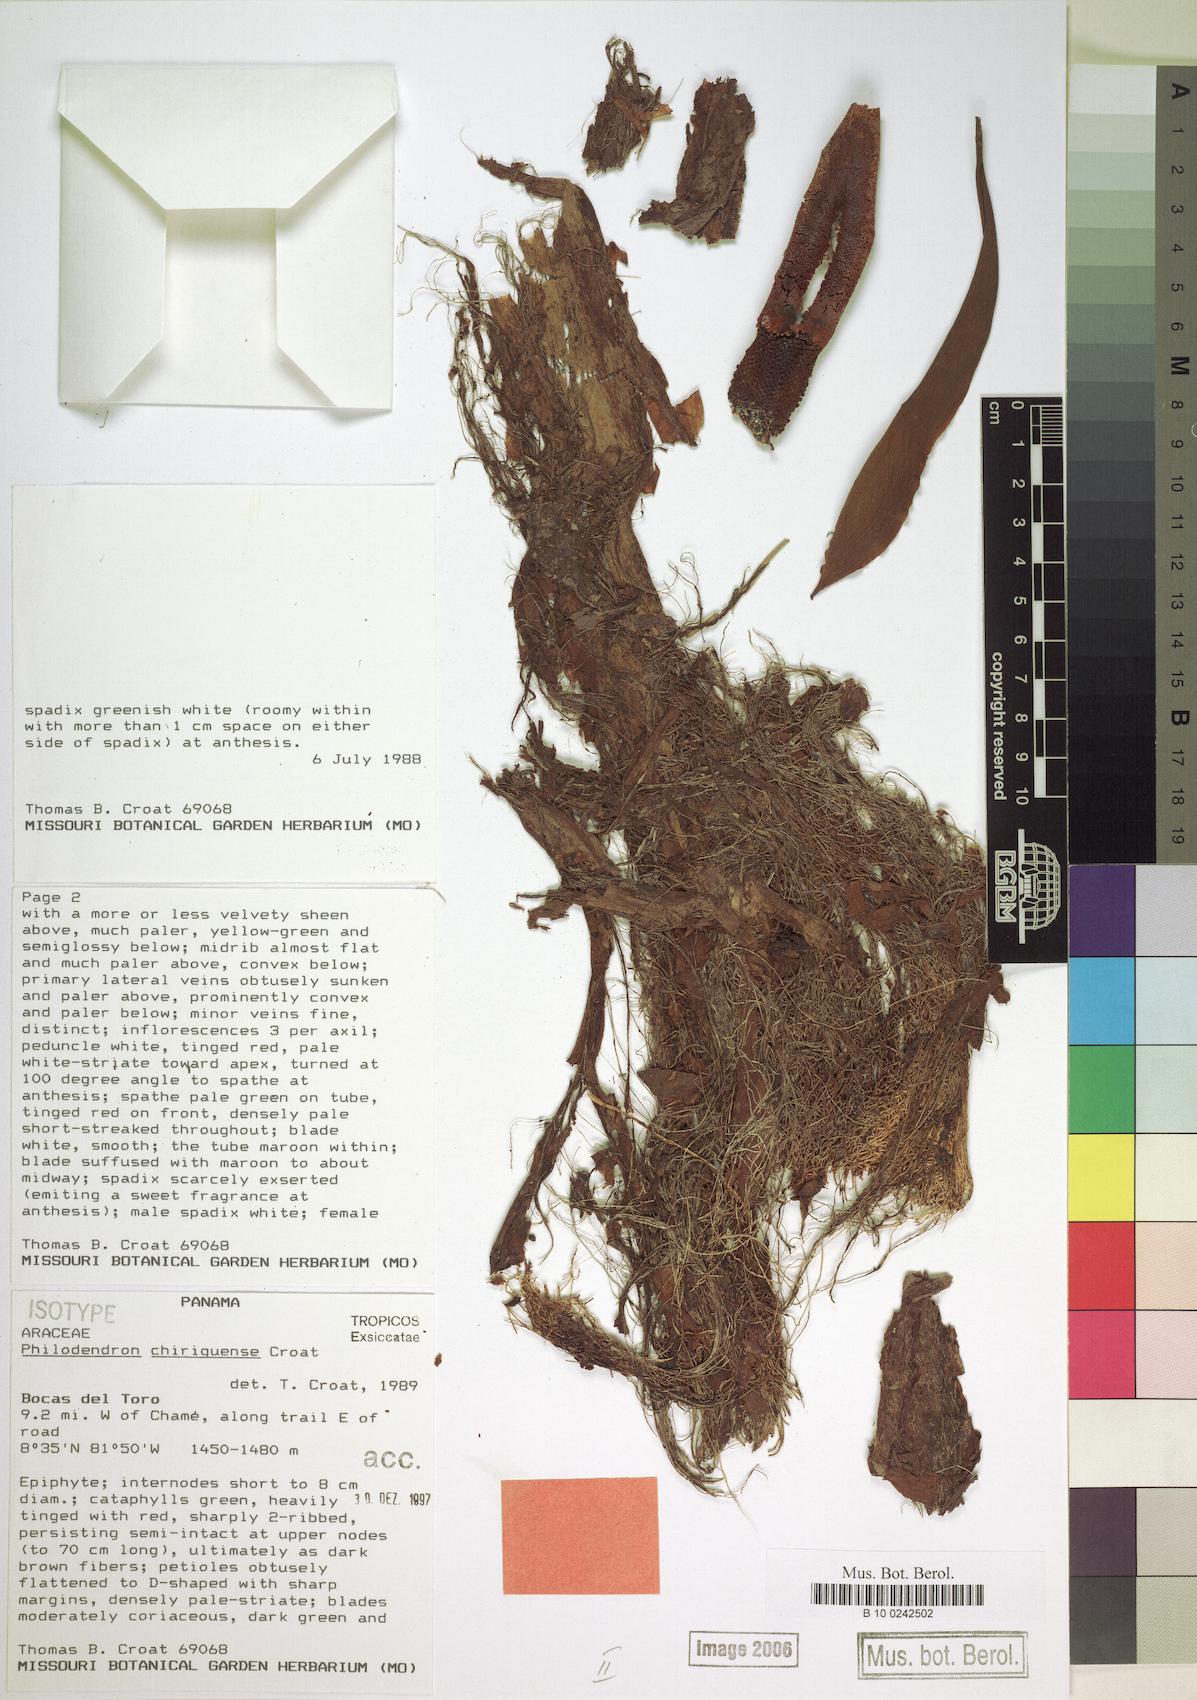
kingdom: Plantae
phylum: Tracheophyta
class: Liliopsida
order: Alismatales
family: Araceae
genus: Philodendron
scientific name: Philodendron chiriquense
